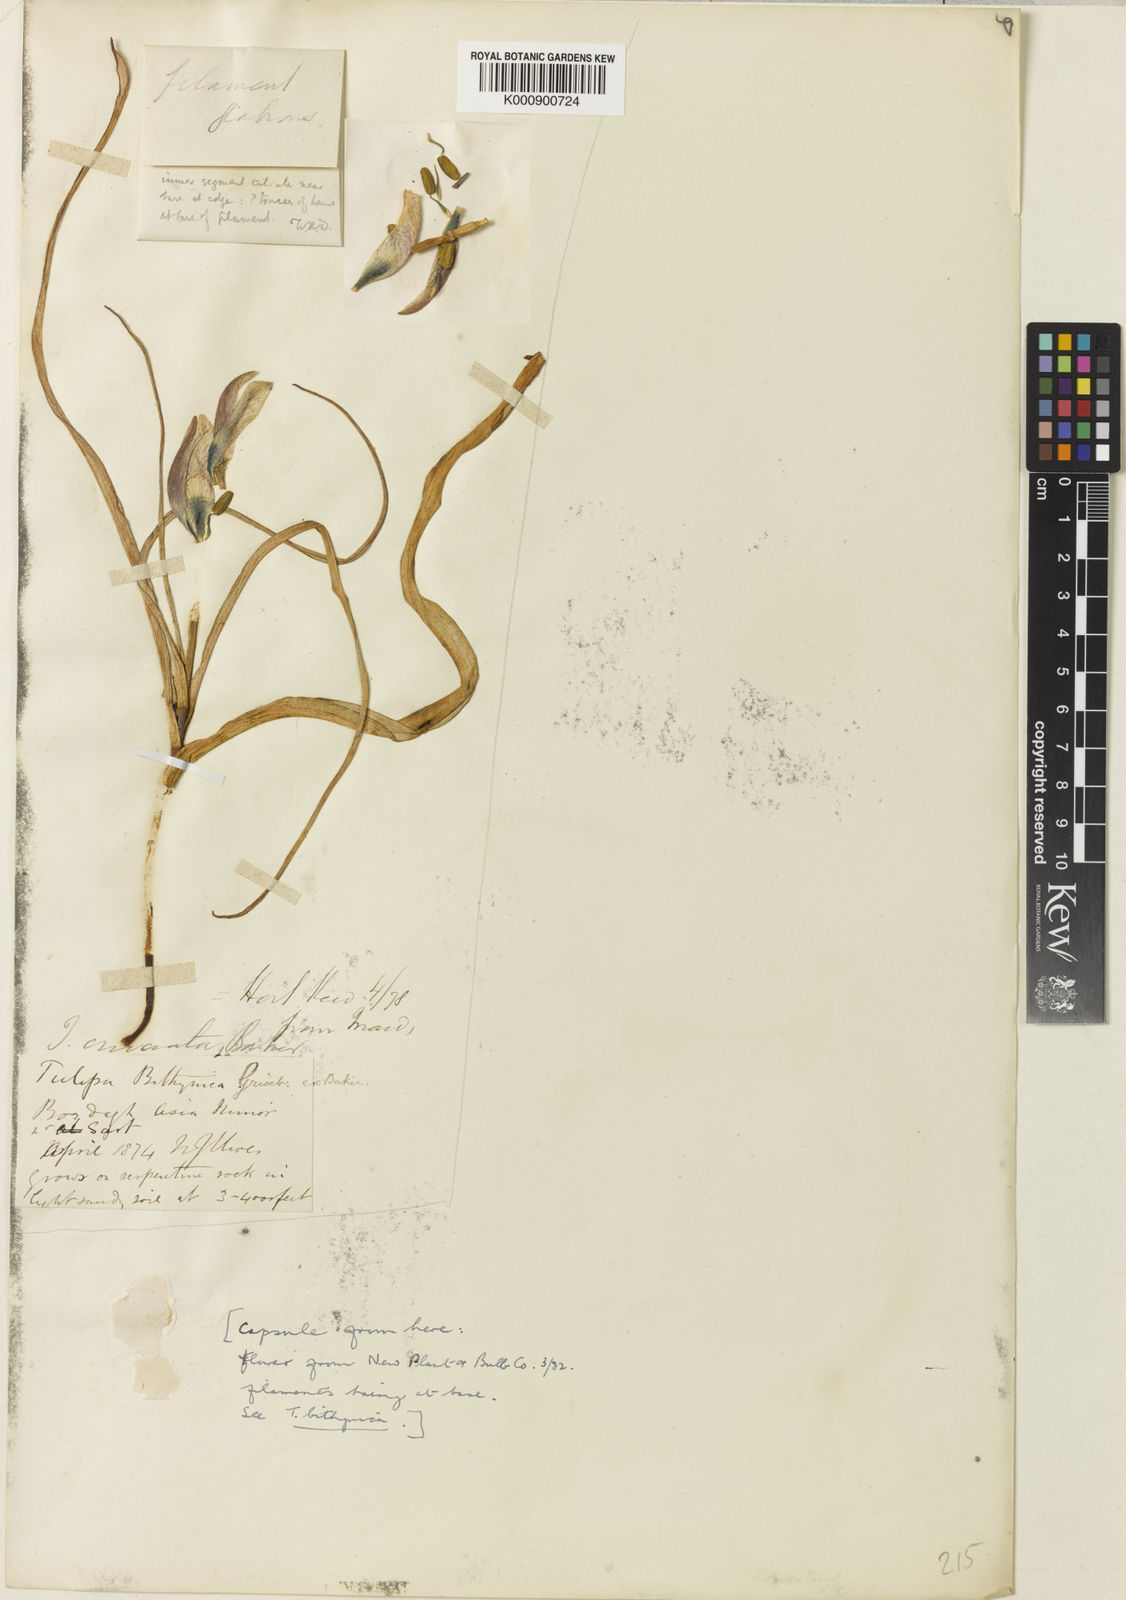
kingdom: Plantae
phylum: Tracheophyta
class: Liliopsida
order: Liliales
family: Liliaceae
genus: Tulipa
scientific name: Tulipa orphanidea
